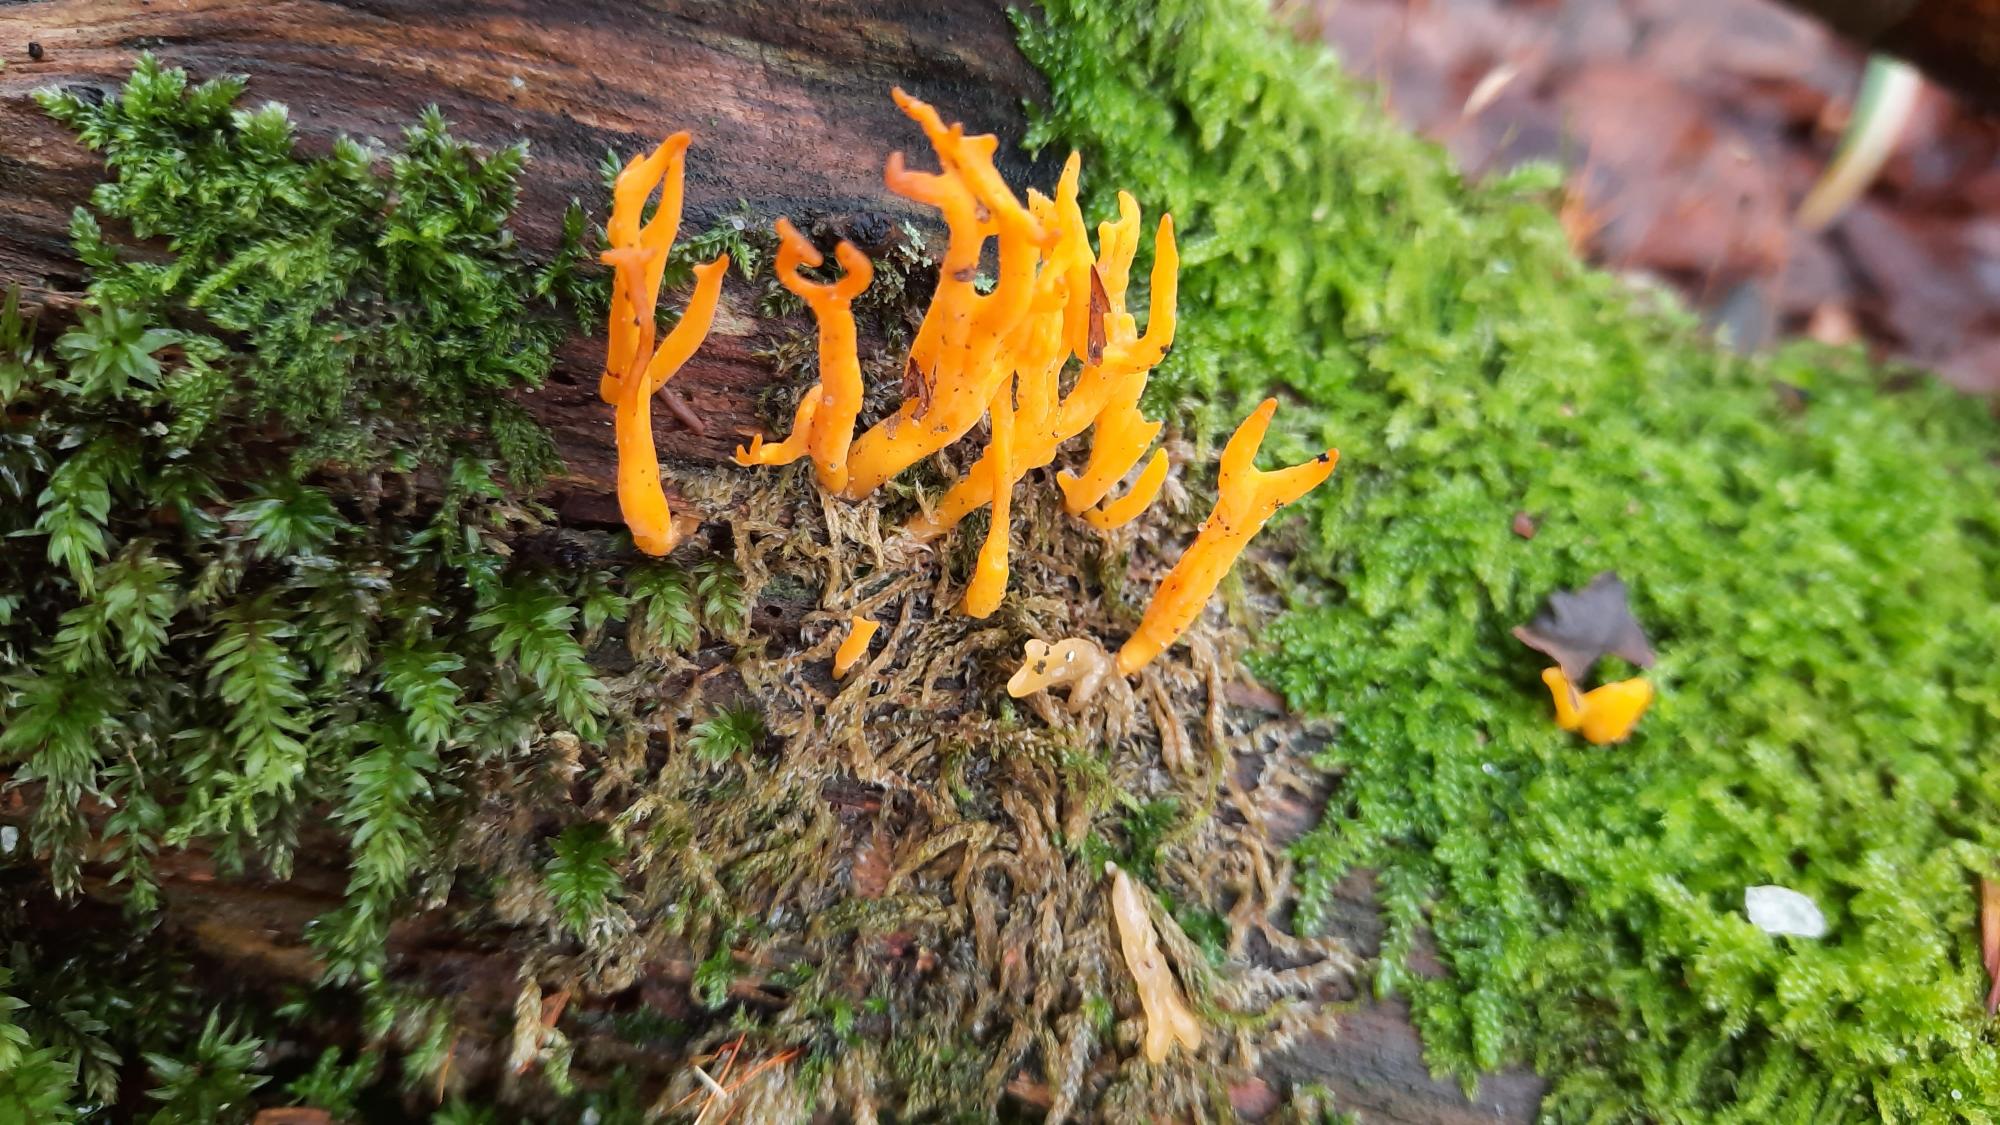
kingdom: Fungi
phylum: Basidiomycota
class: Dacrymycetes
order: Dacrymycetales
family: Dacrymycetaceae
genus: Calocera
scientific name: Calocera
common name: Guldgaffel
